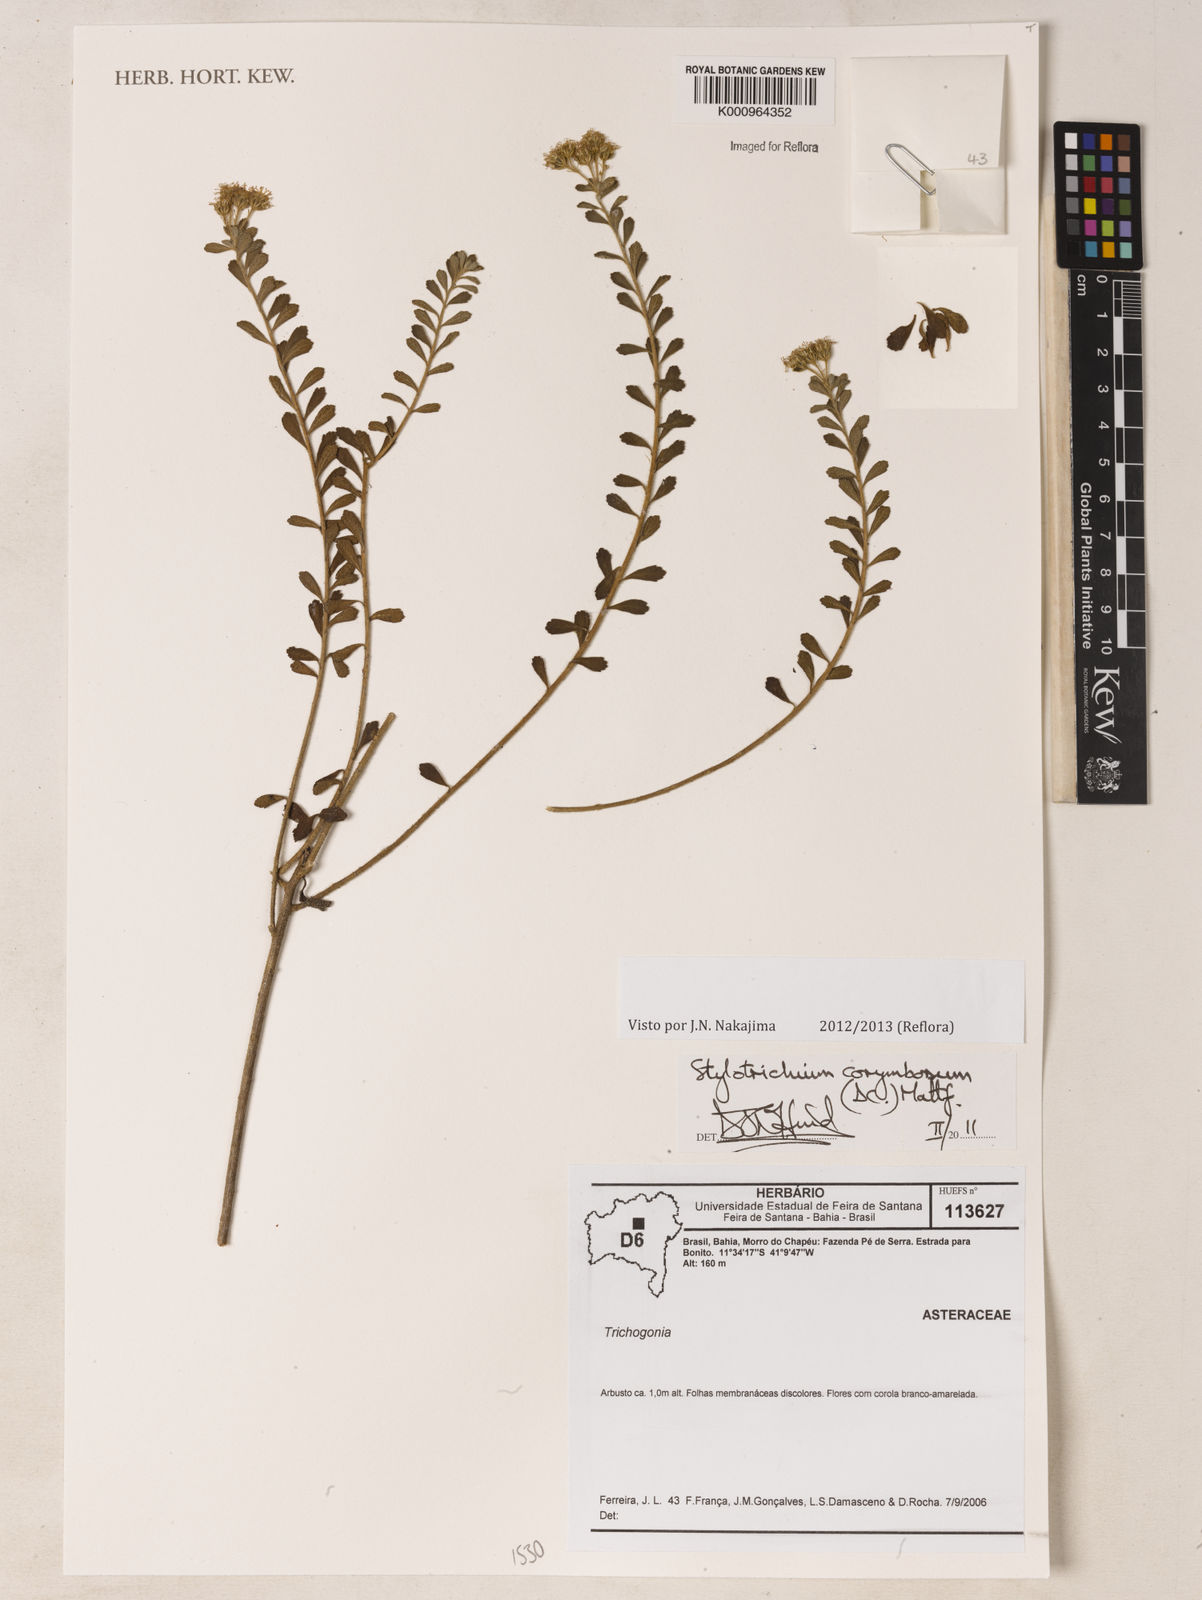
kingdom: Plantae
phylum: Tracheophyta
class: Magnoliopsida
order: Asterales
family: Asteraceae
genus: Stylotrichium
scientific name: Stylotrichium
